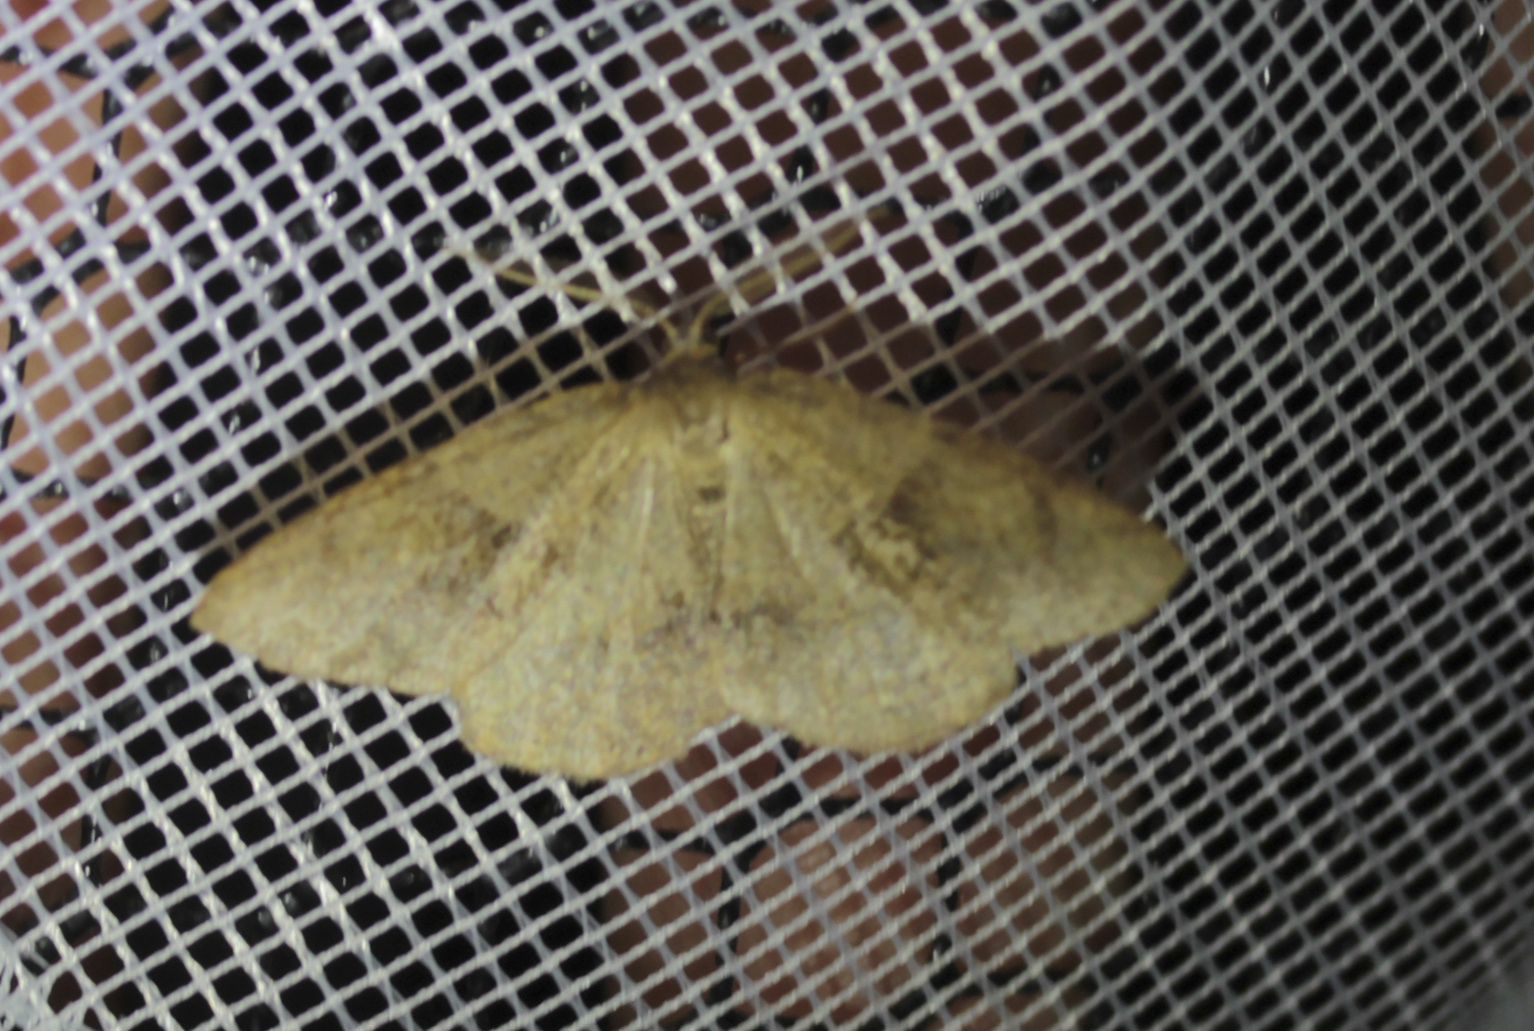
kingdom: Animalia
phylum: Arthropoda
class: Insecta
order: Lepidoptera
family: Geometridae
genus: Plagodis
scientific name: Plagodis pulveraria
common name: Barred umber
